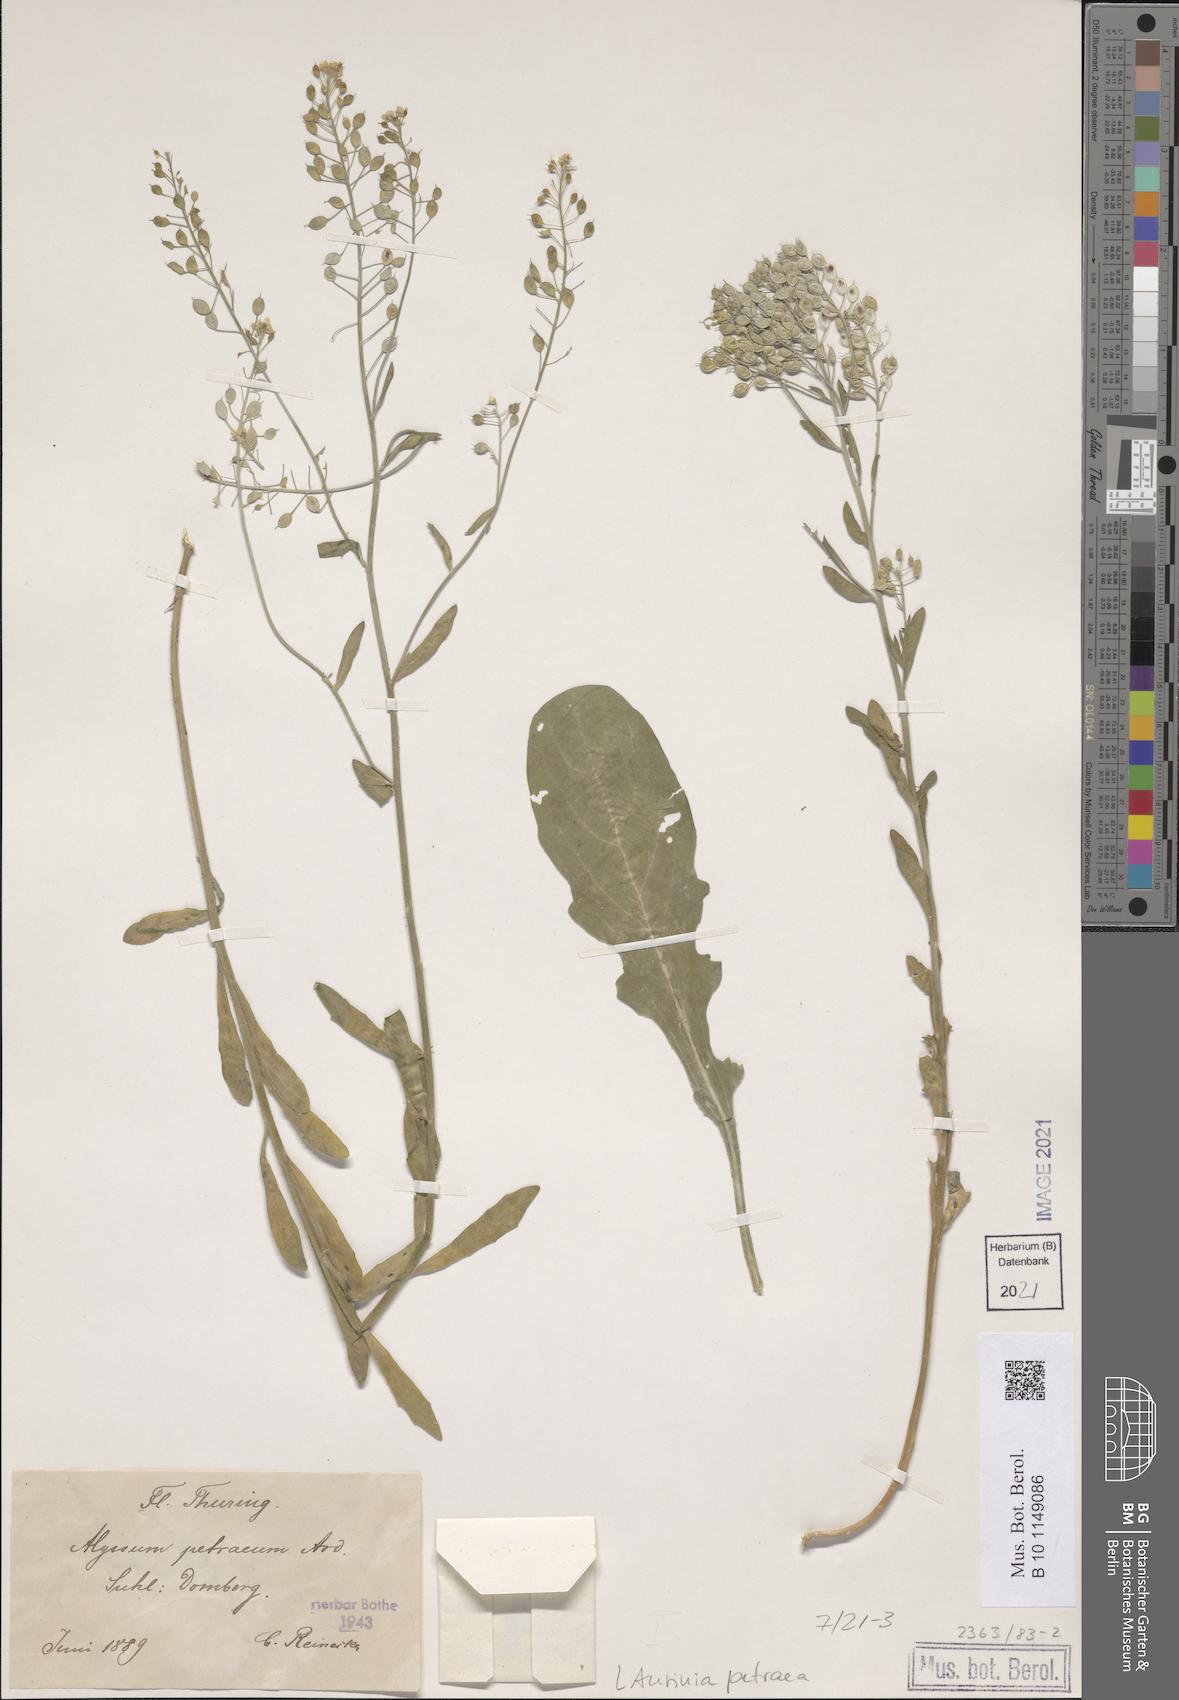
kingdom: Plantae
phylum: Tracheophyta
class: Magnoliopsida
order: Brassicales
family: Brassicaceae
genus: Aurinia
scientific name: Aurinia petraea
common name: Goldentuft
